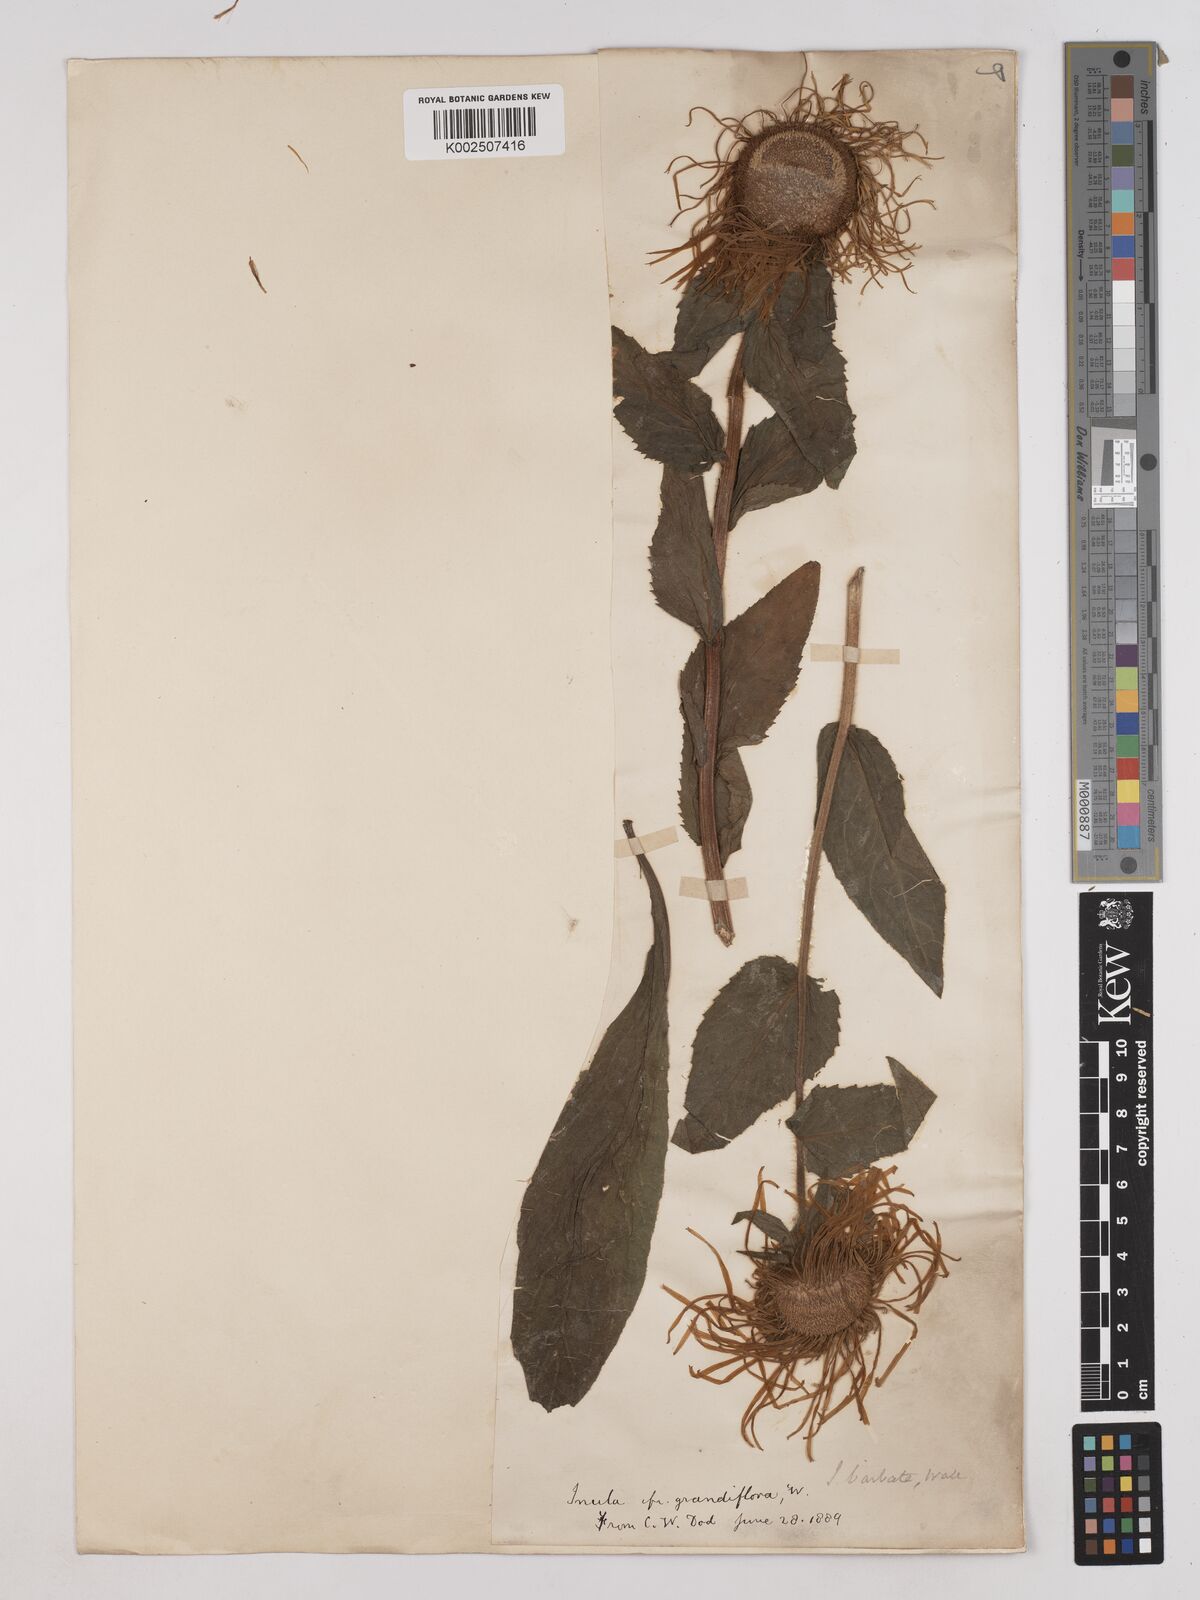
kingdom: Plantae
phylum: Tracheophyta
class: Magnoliopsida
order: Asterales
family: Asteraceae
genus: Pentanema
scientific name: Pentanema orientale
